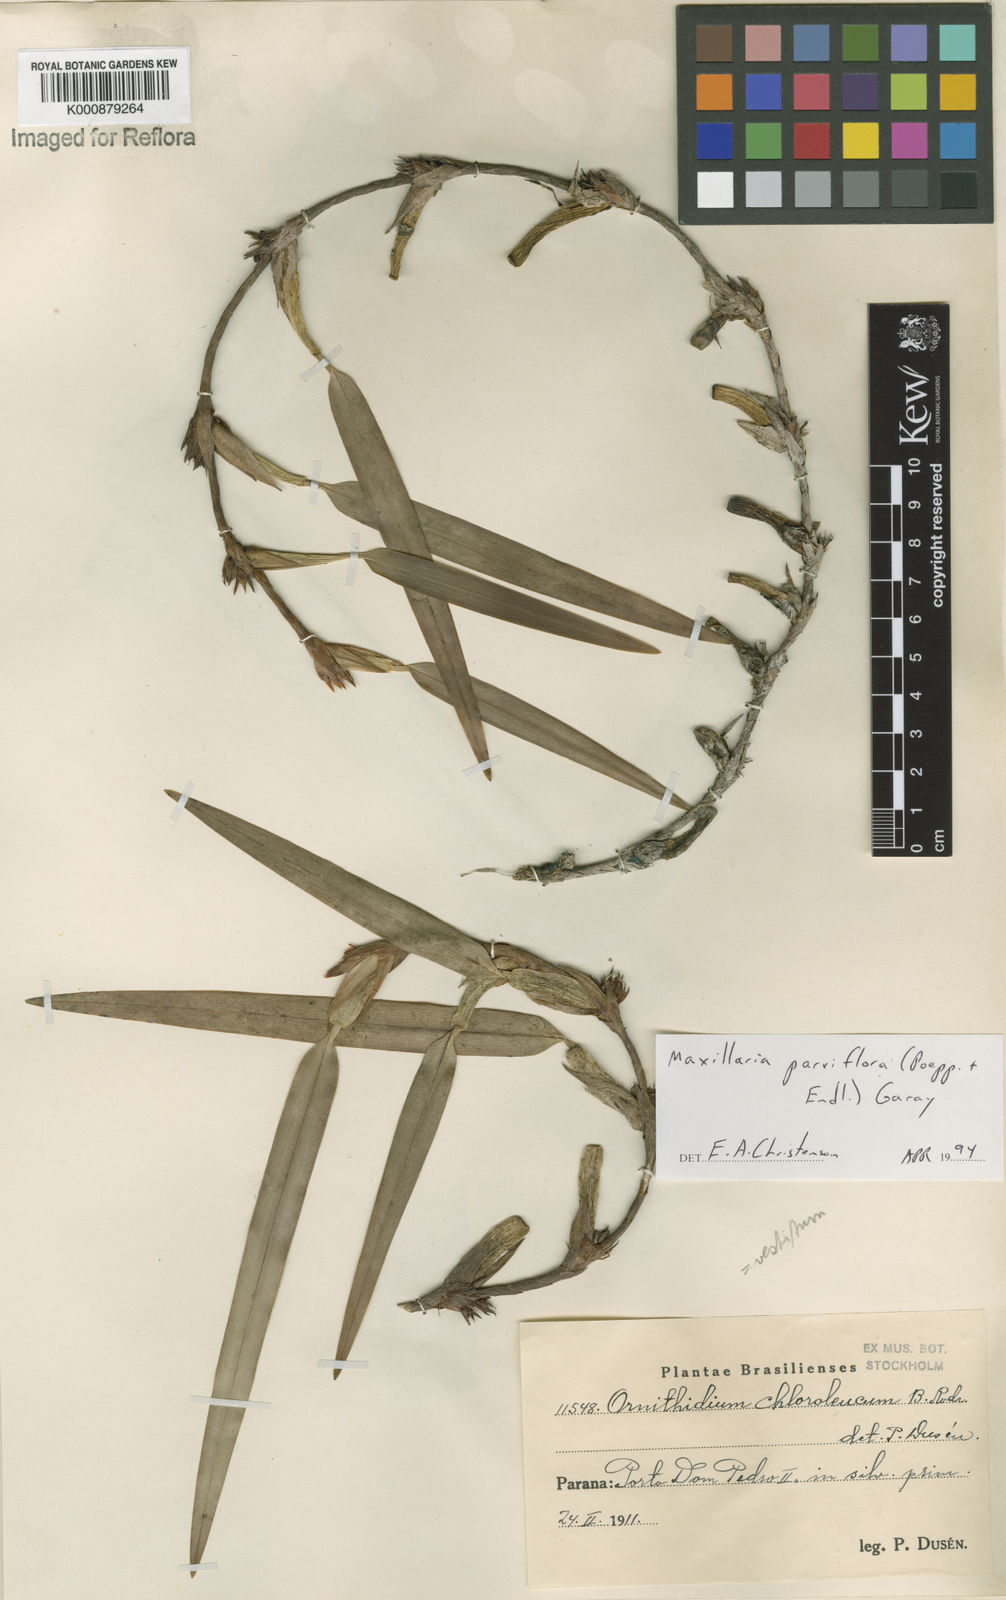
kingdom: Plantae
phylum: Tracheophyta
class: Liliopsida
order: Asparagales
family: Orchidaceae
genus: Maxillaria
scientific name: Maxillaria parviflora
